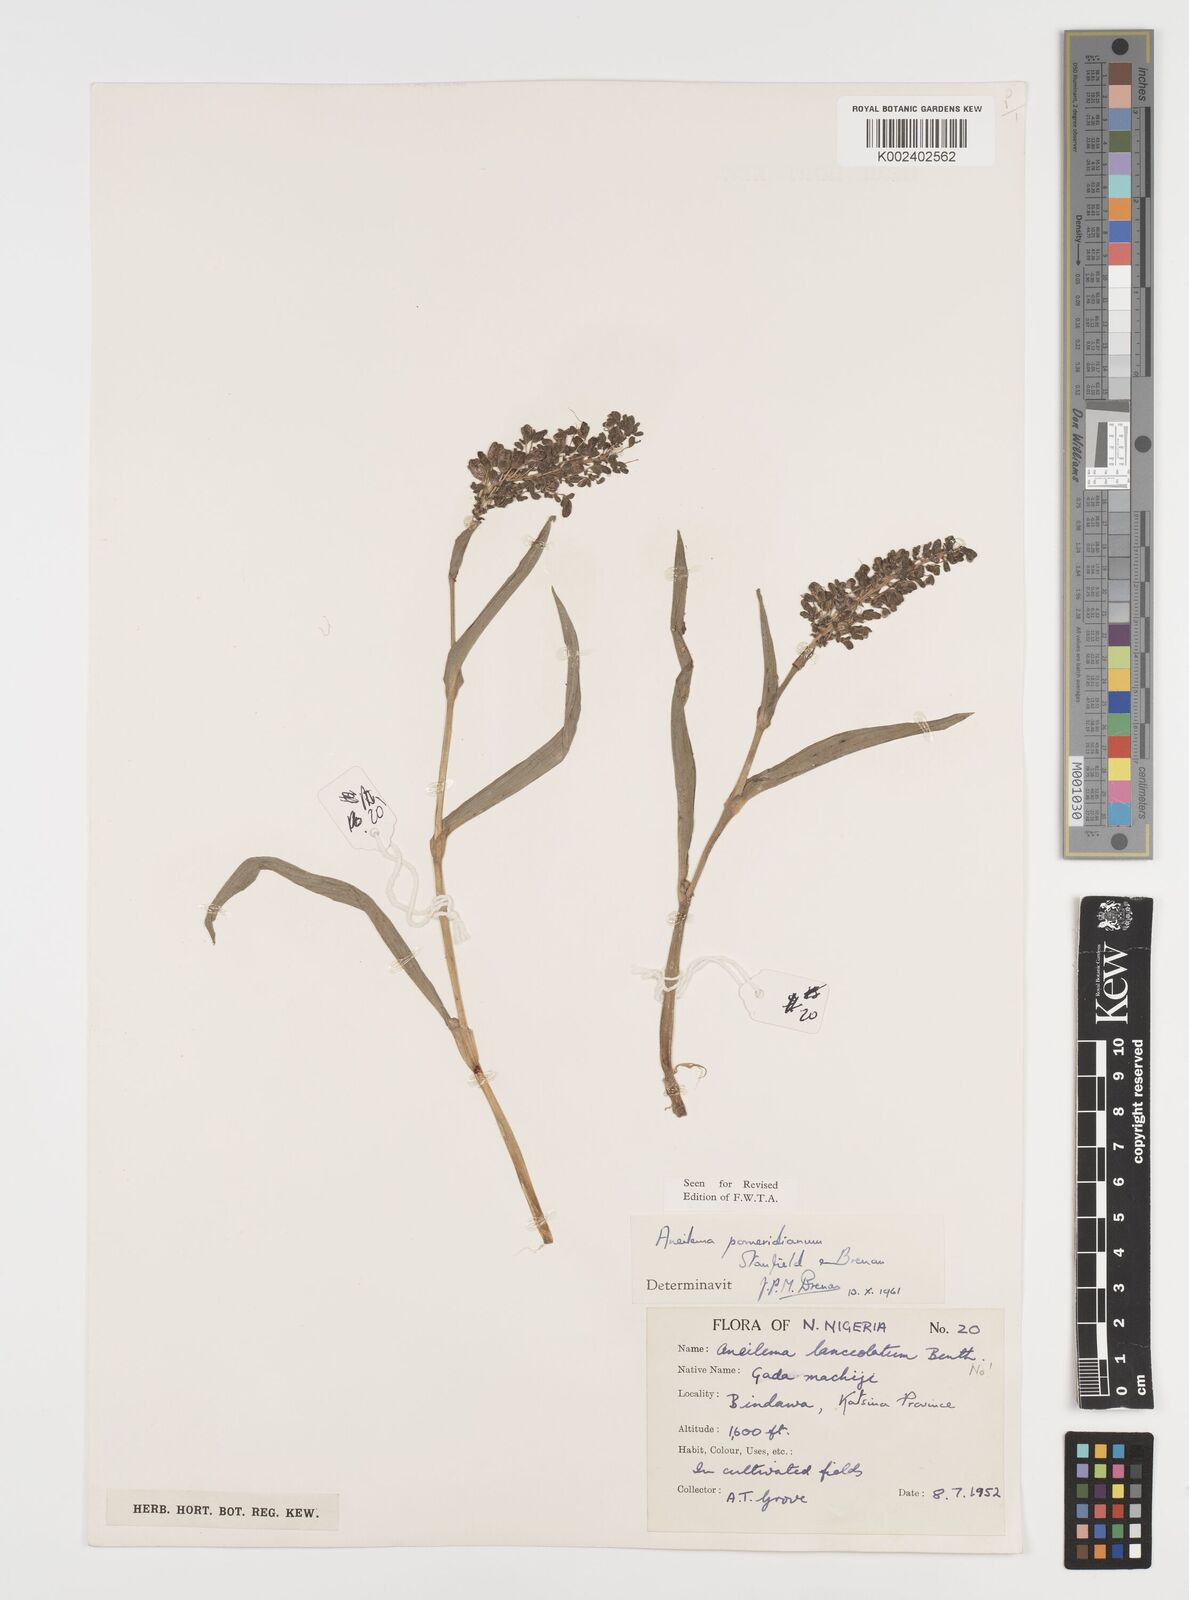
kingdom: Plantae
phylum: Tracheophyta
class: Liliopsida
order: Commelinales
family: Commelinaceae
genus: Aneilema
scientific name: Aneilema pomeridianum
